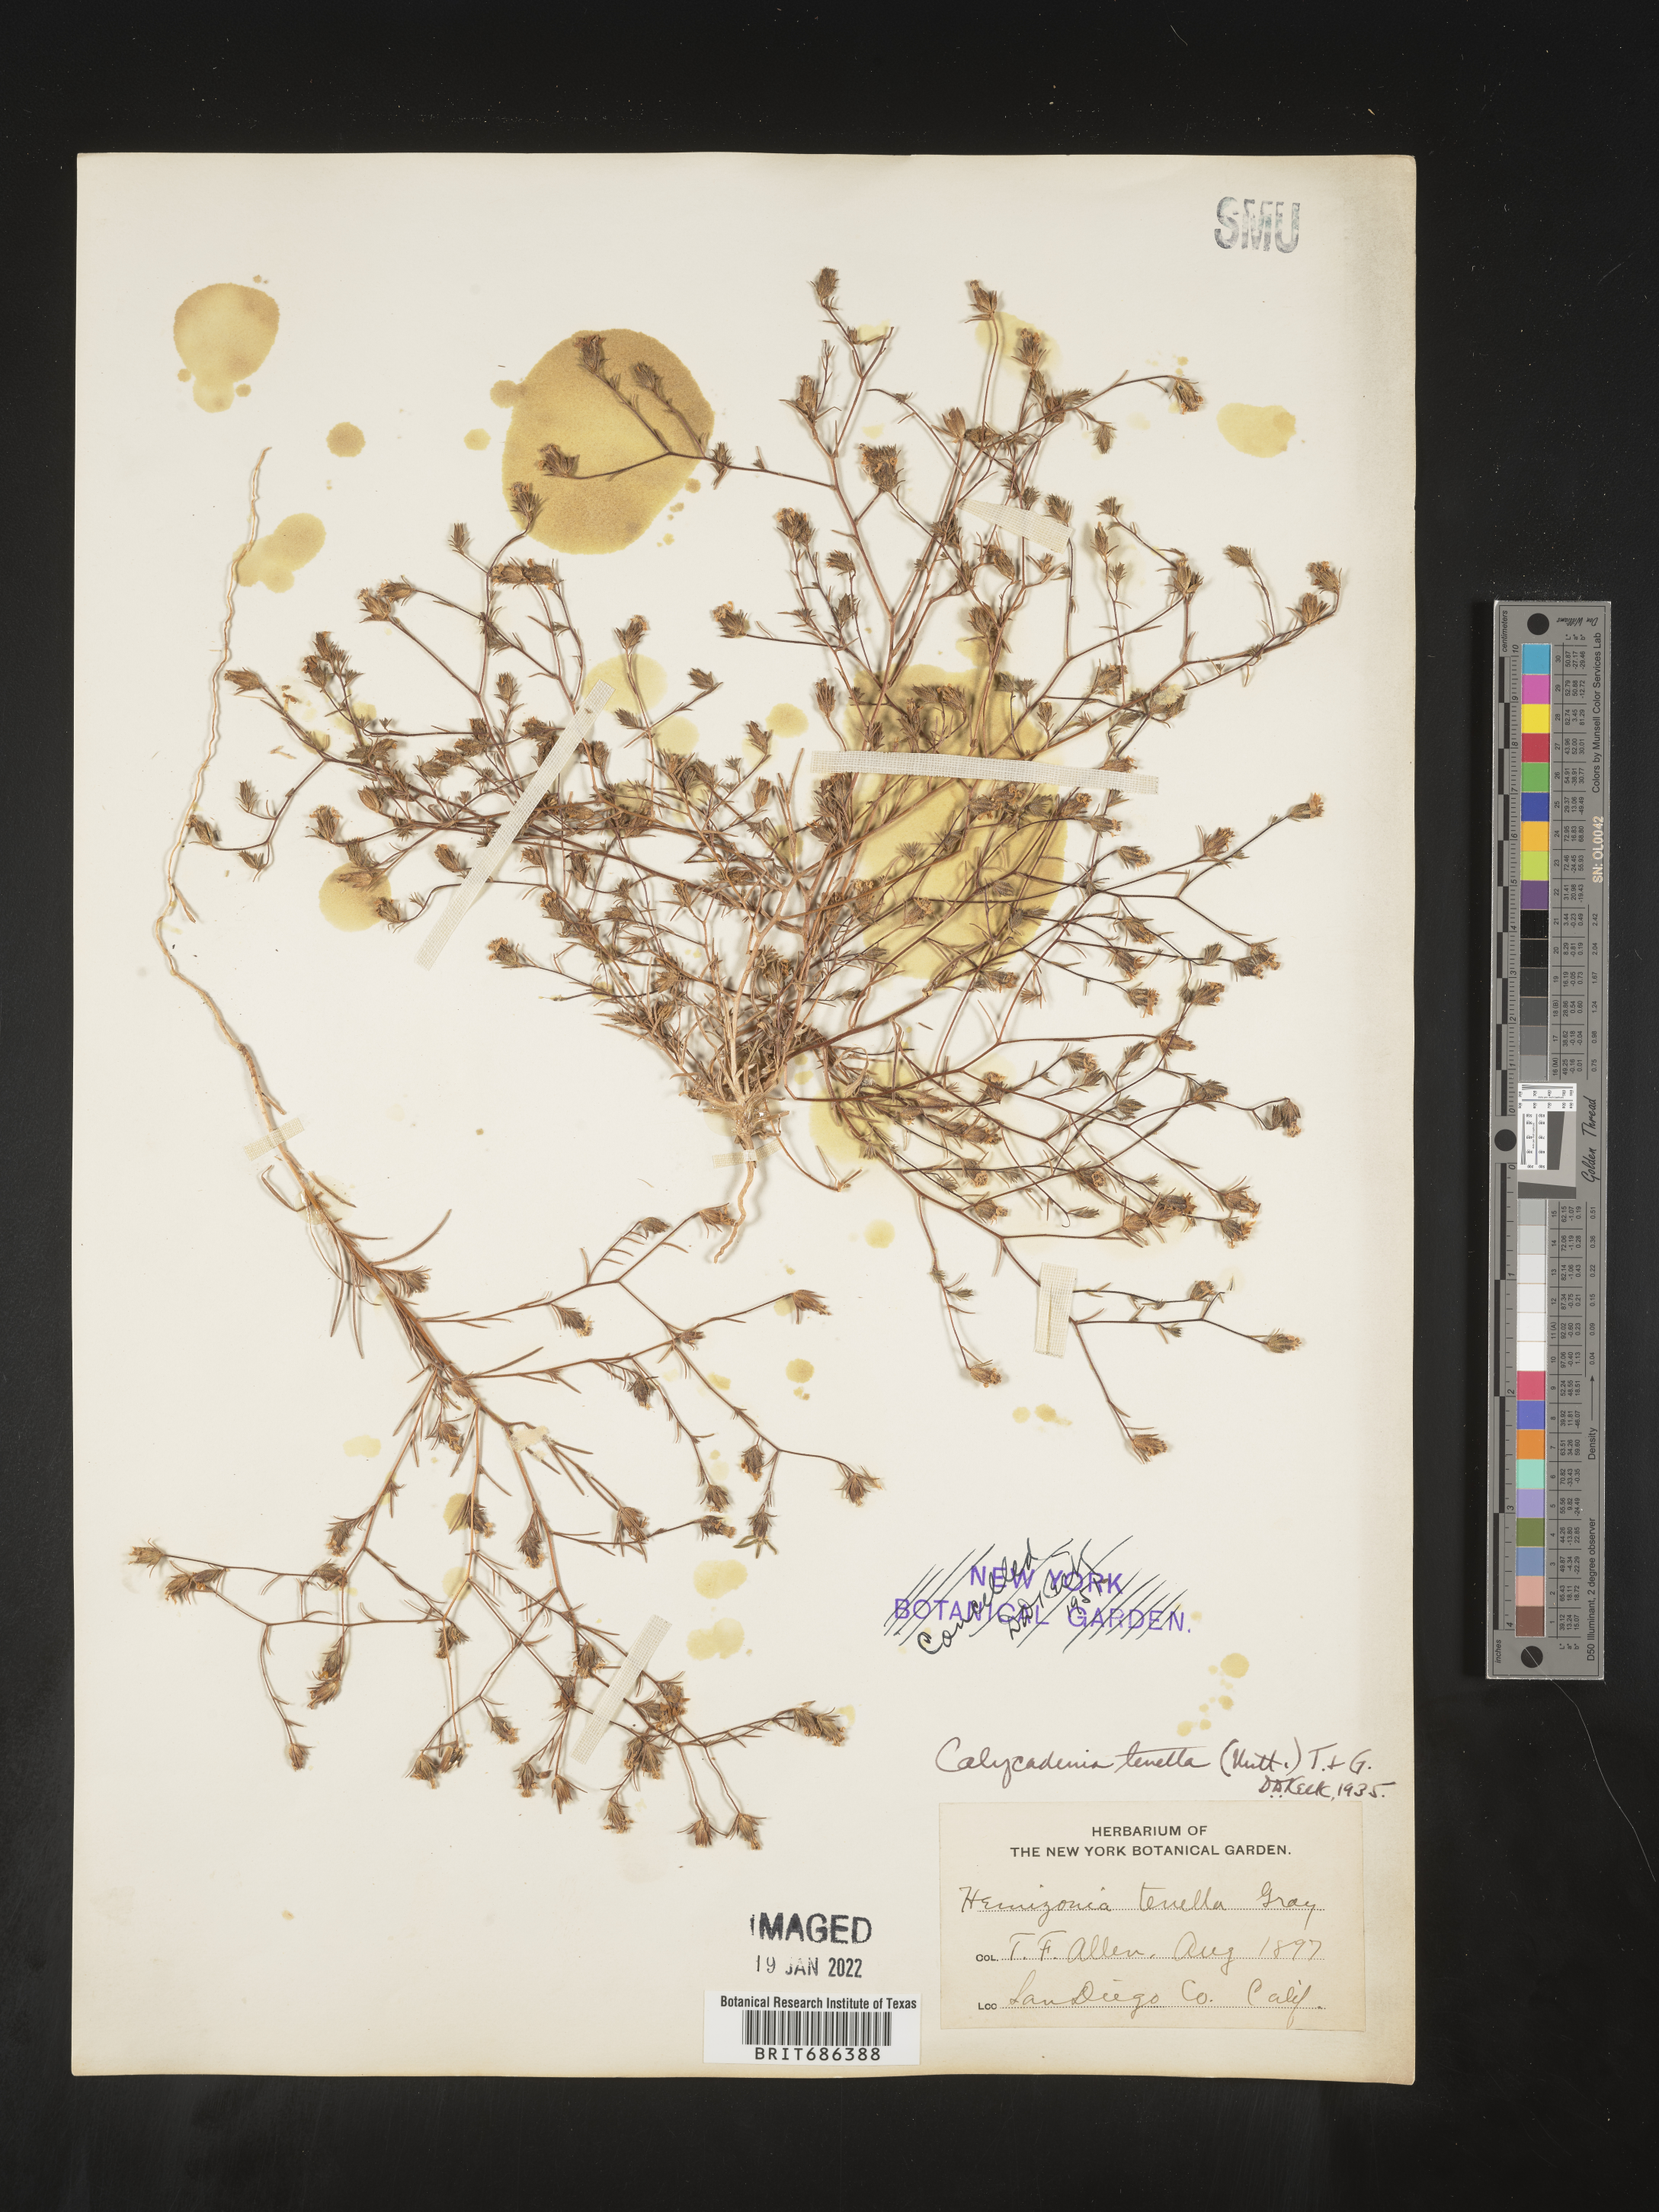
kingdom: Plantae
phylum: Tracheophyta
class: Magnoliopsida
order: Asterales
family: Asteraceae
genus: Calycadenia
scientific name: Calycadenia
